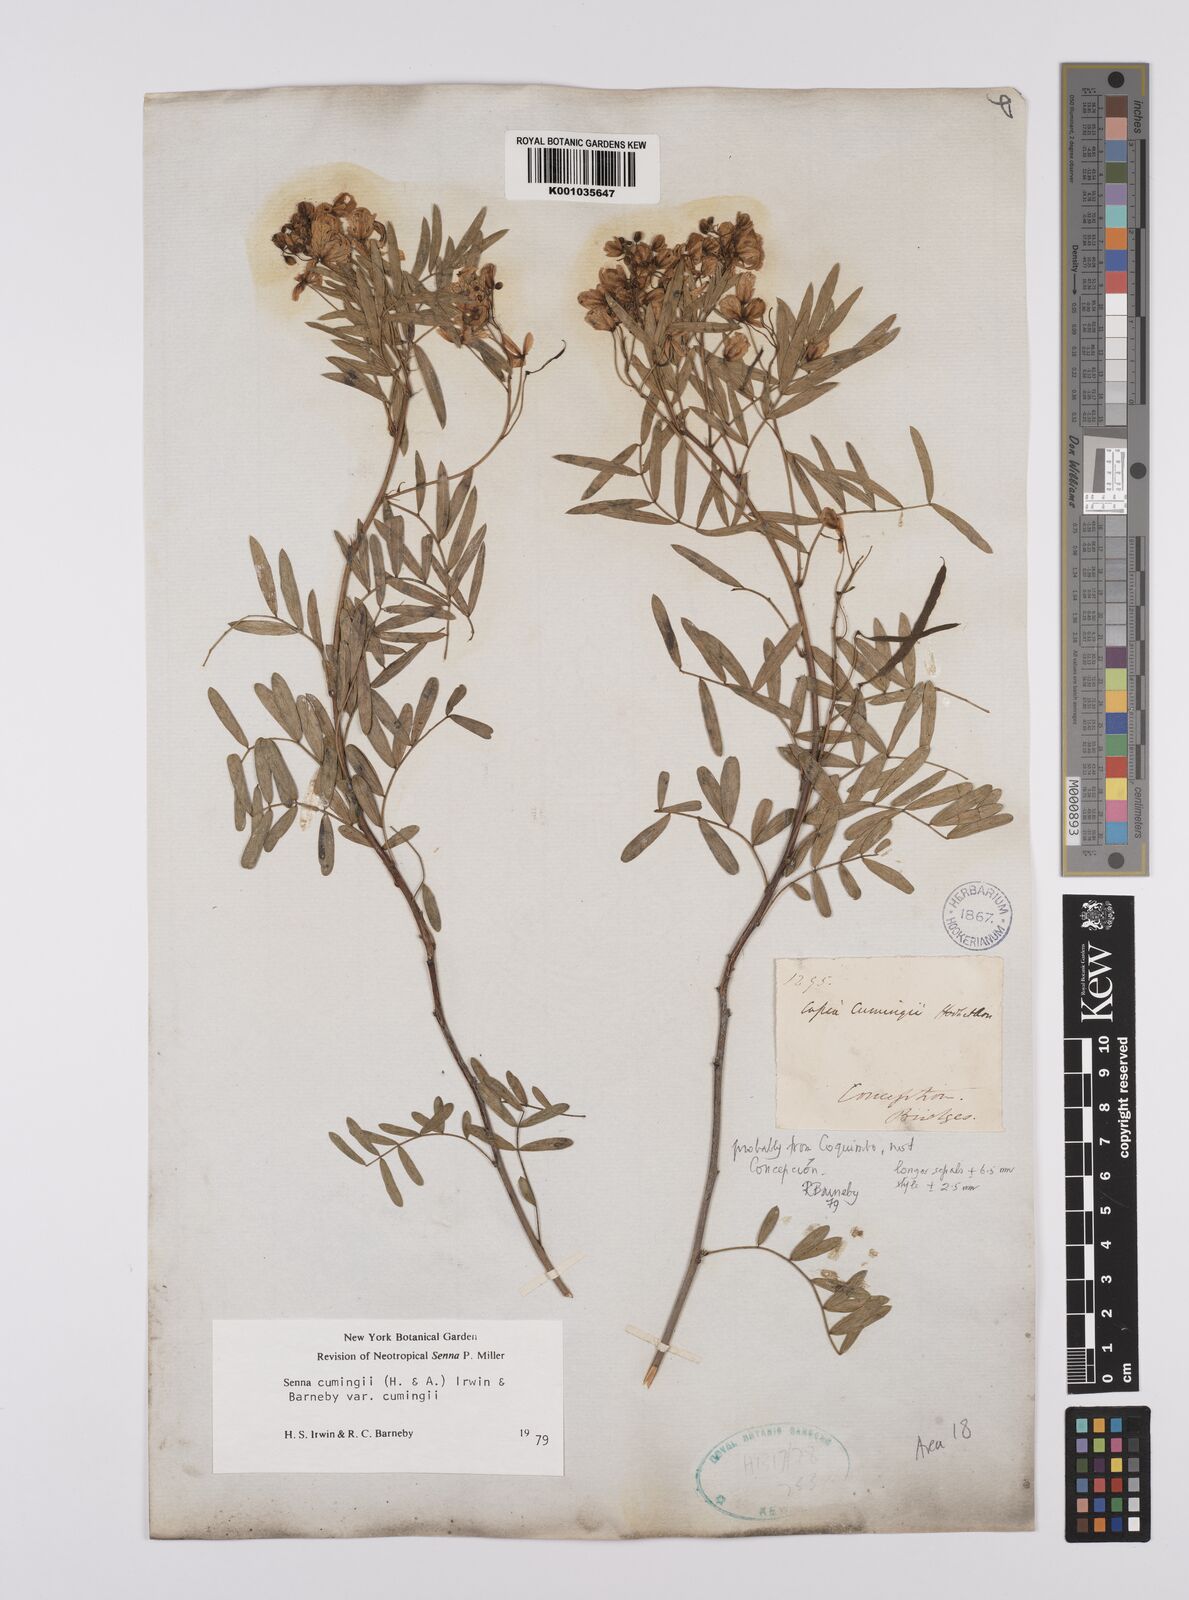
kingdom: Plantae
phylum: Tracheophyta
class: Magnoliopsida
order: Fabales
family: Fabaceae
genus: Senna
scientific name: Senna cumingii
